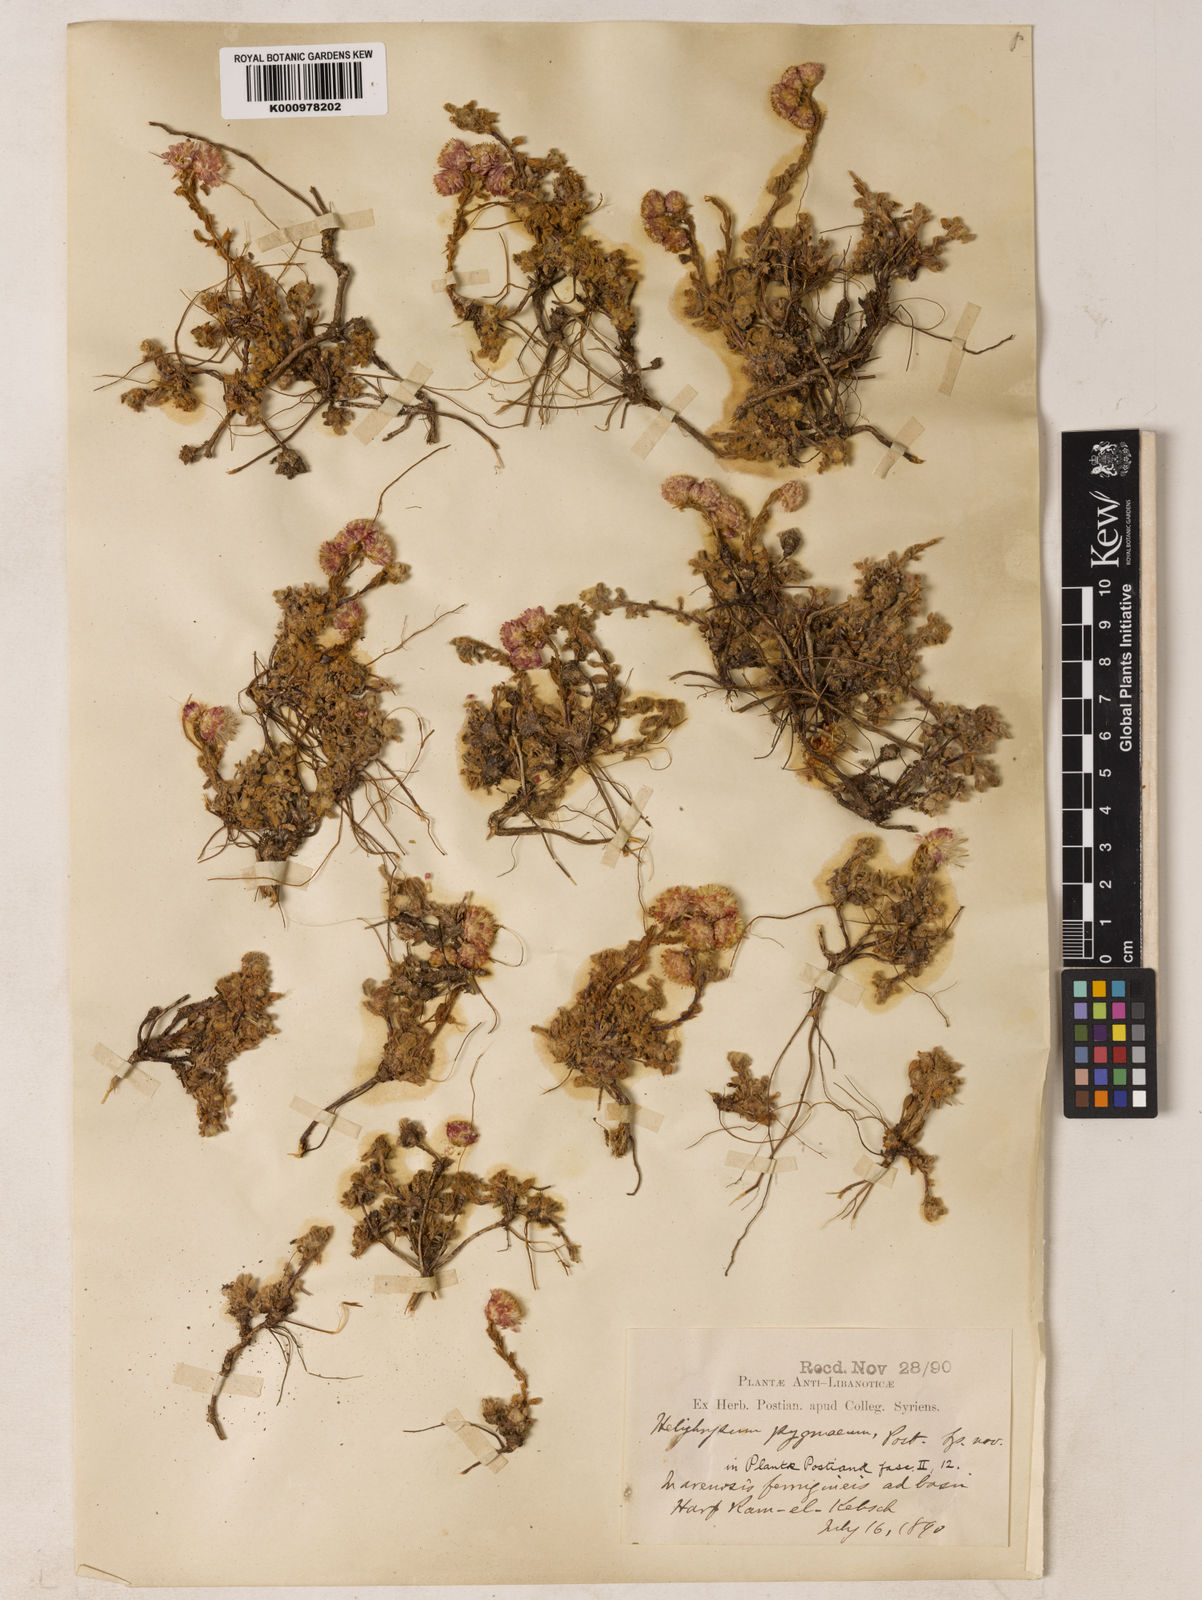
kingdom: Plantae
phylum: Tracheophyta
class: Magnoliopsida
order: Asterales
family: Asteraceae
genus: Helichrysum
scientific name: Helichrysum pygmaeum
